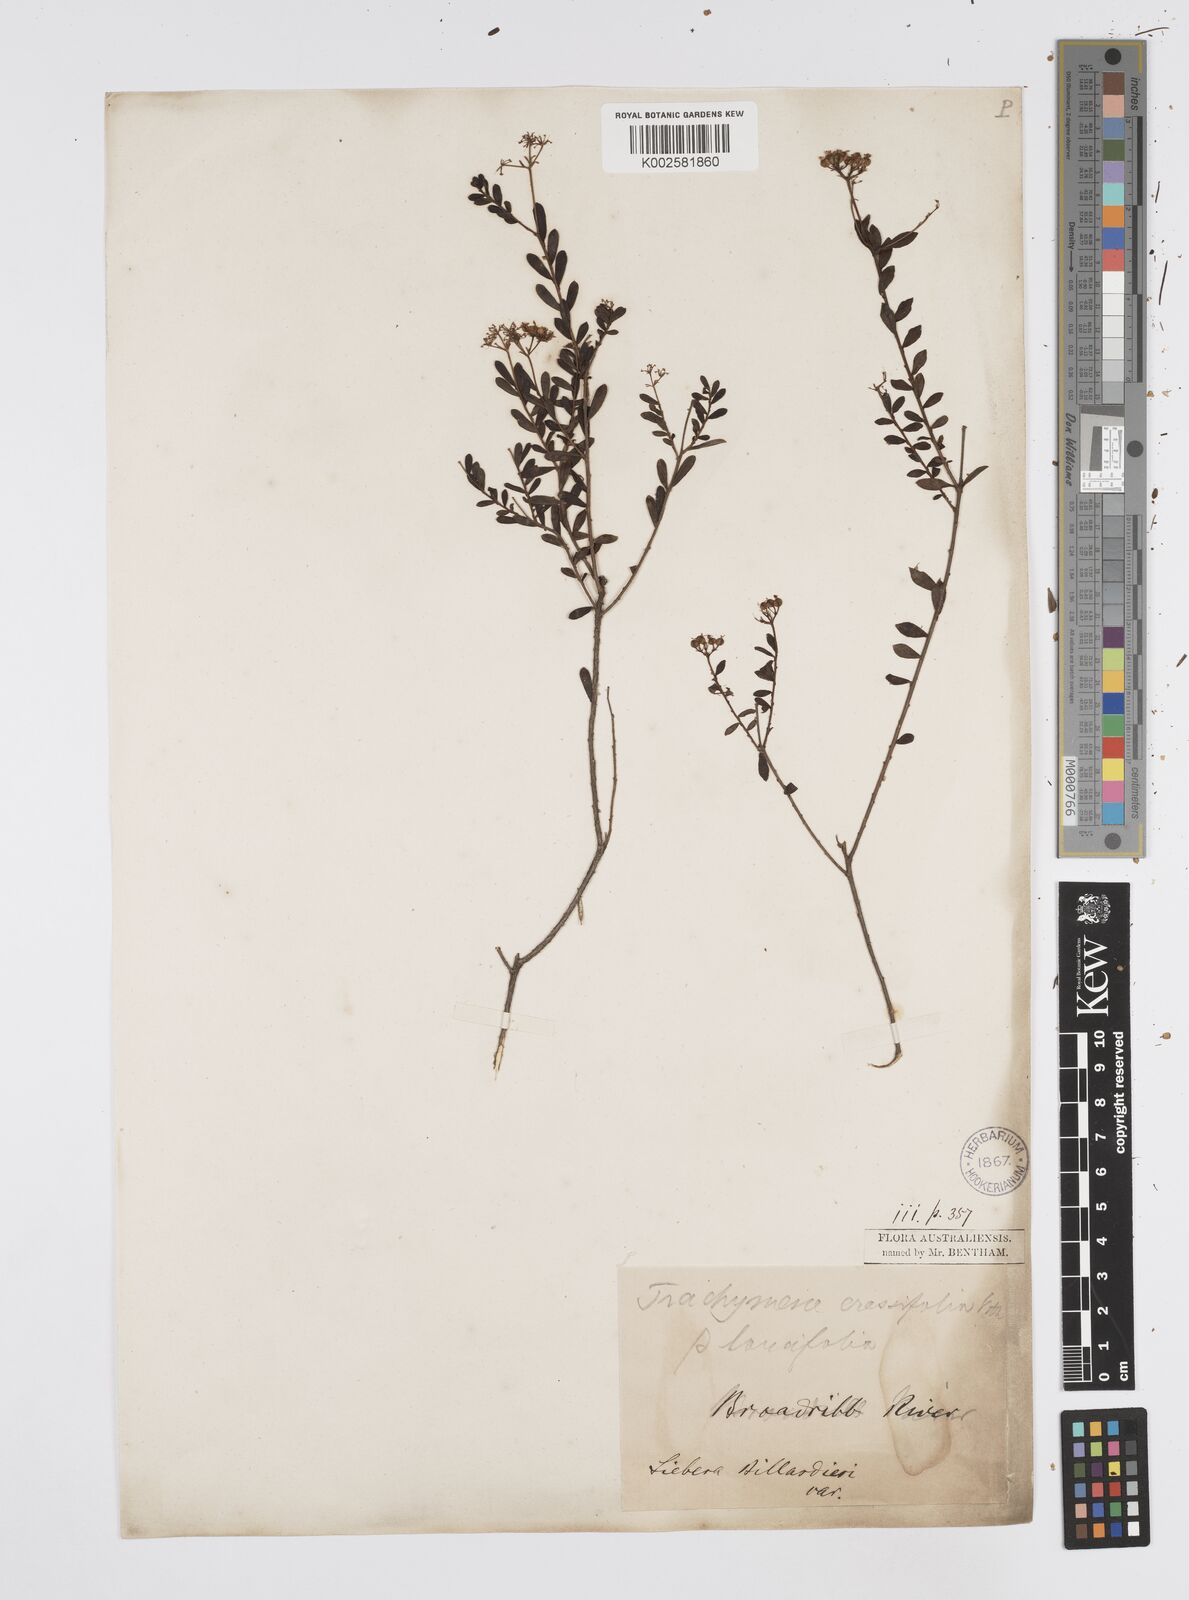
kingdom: Plantae
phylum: Tracheophyta
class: Magnoliopsida
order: Apiales
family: Apiaceae
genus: Platysace
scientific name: Platysace lanceolata
